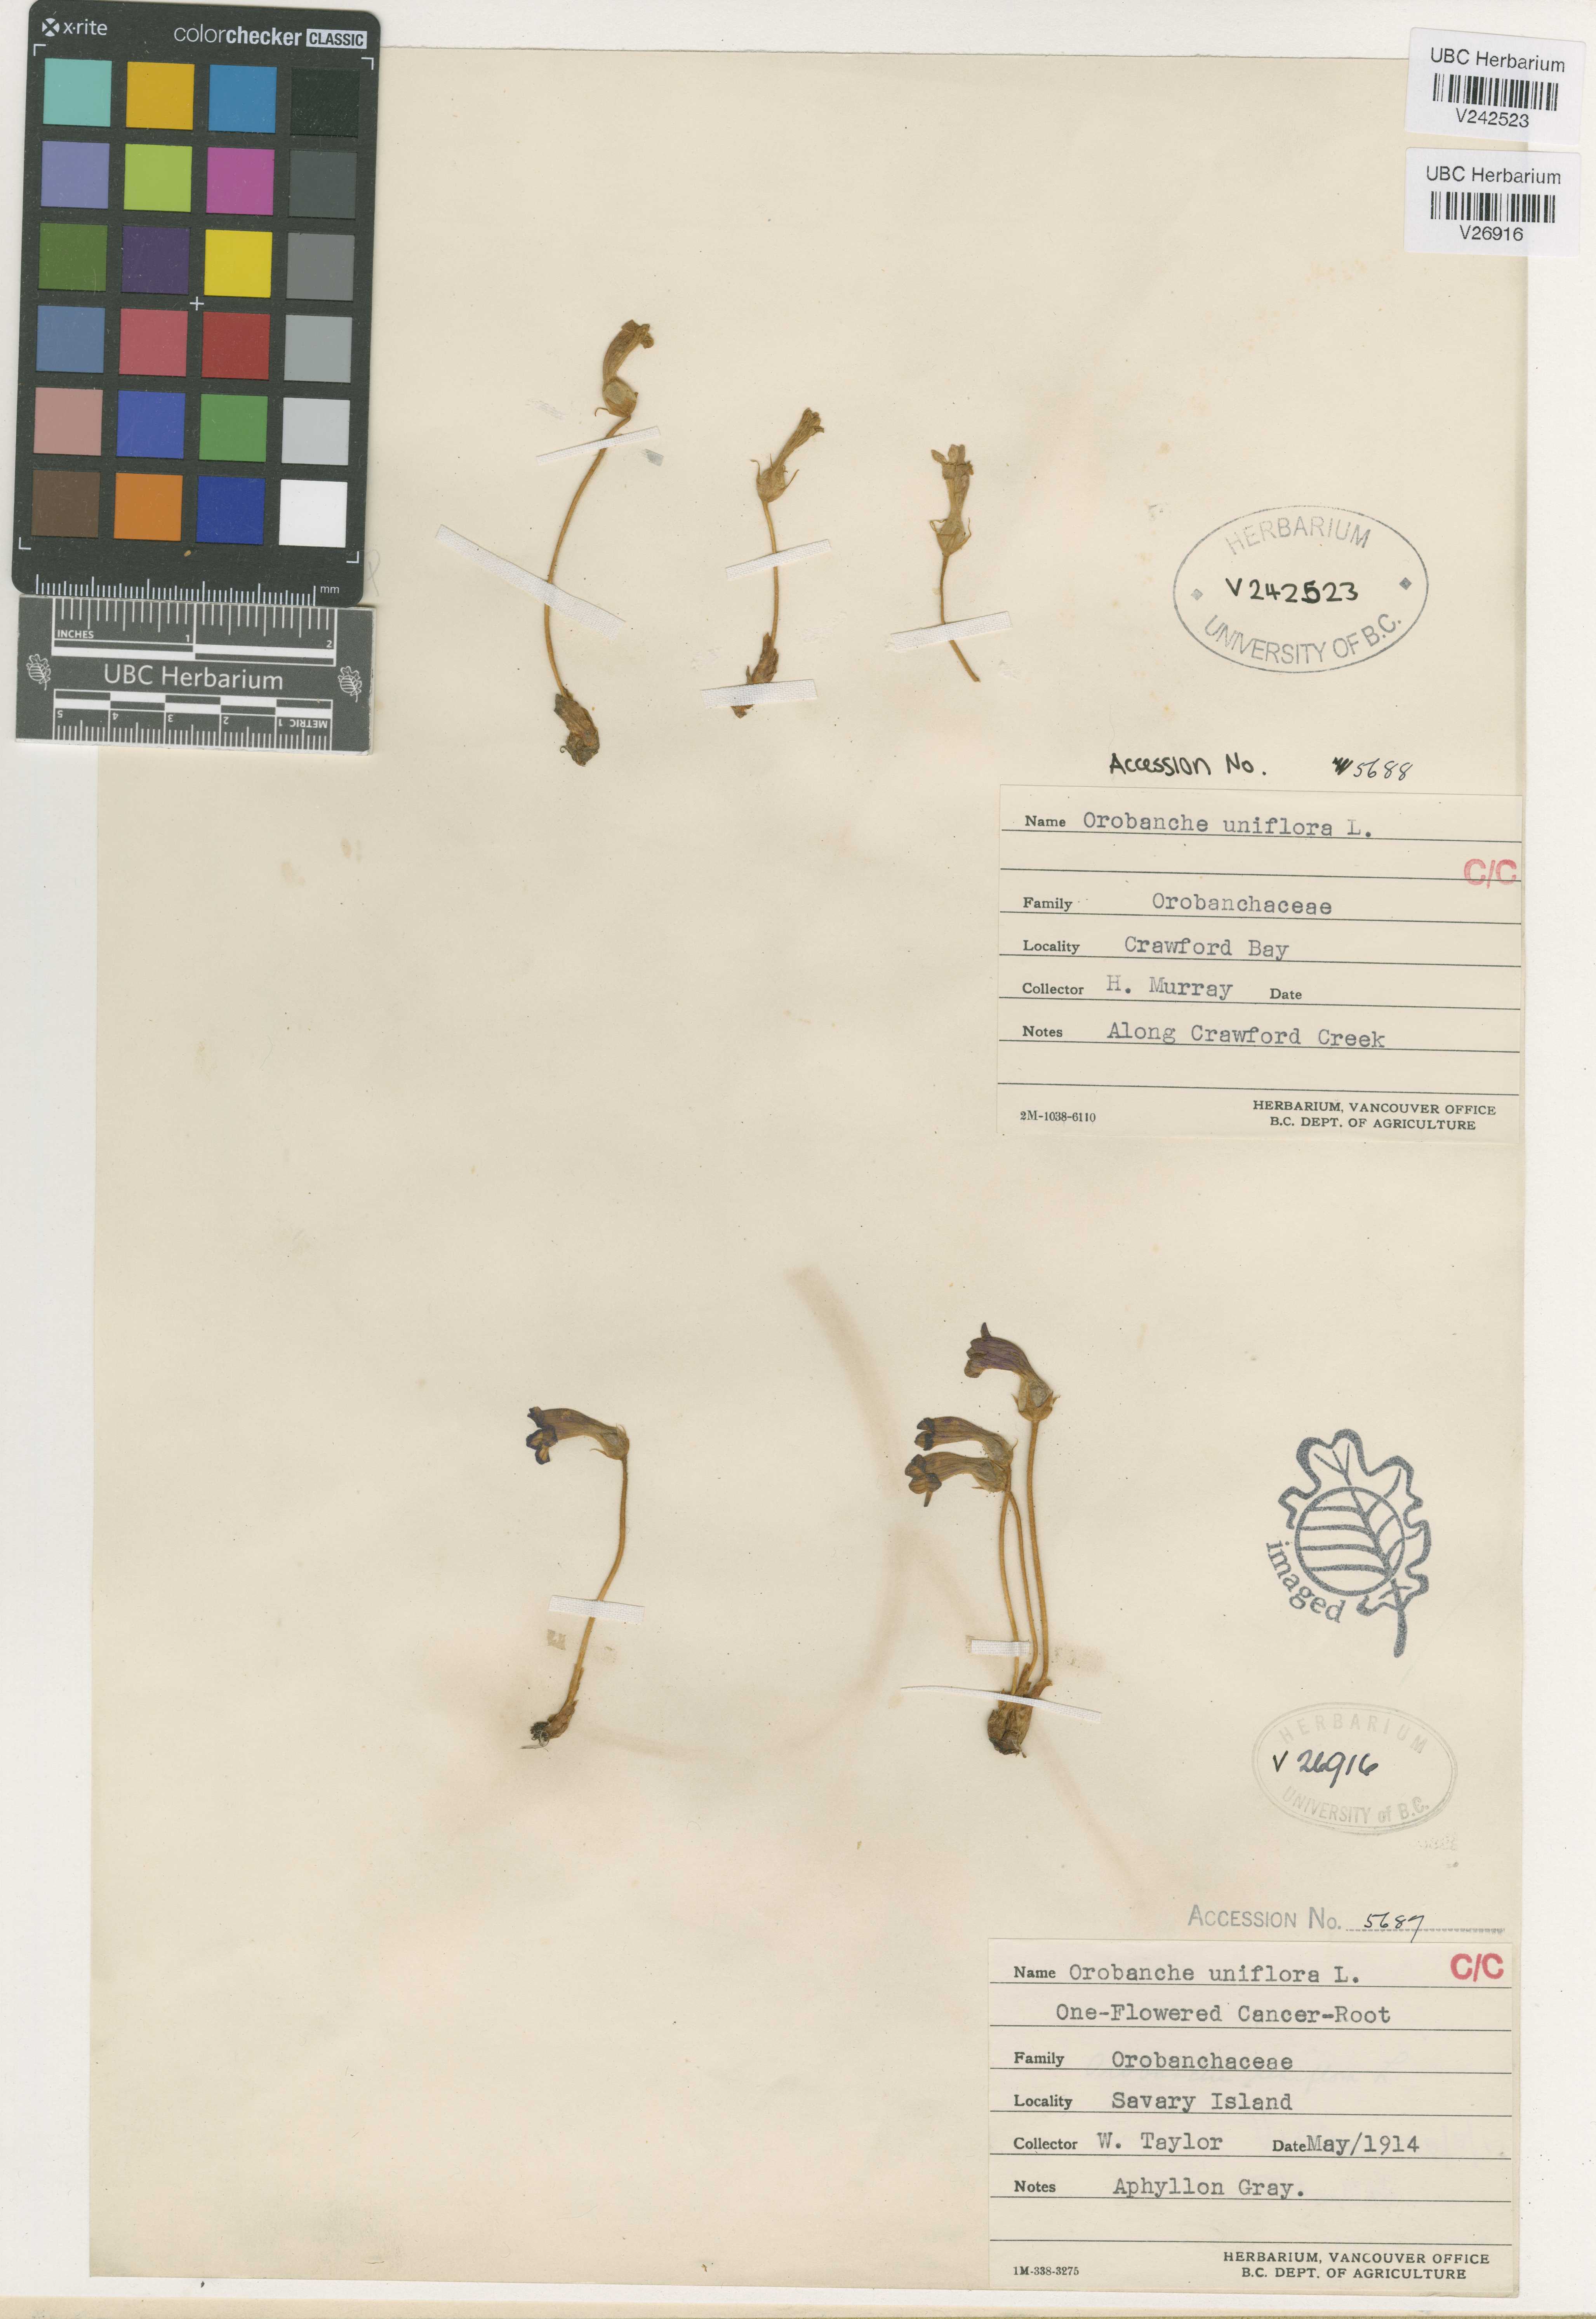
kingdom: Plantae
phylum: Tracheophyta
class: Magnoliopsida
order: Lamiales
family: Orobanchaceae
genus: Aphyllon
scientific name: Aphyllon uniflorum
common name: One-flowered broomrape
